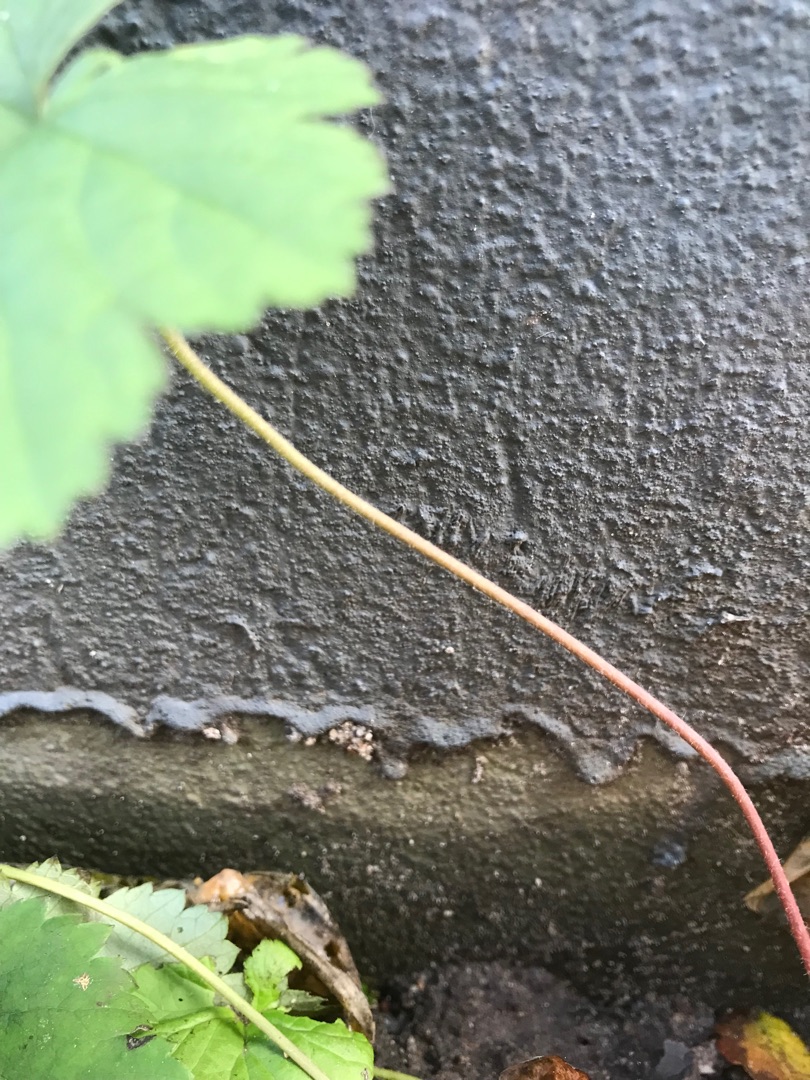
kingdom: Plantae
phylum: Tracheophyta
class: Magnoliopsida
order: Rosales
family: Rosaceae
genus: Geum
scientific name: Geum urbanum
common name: Feber-nellikerod
